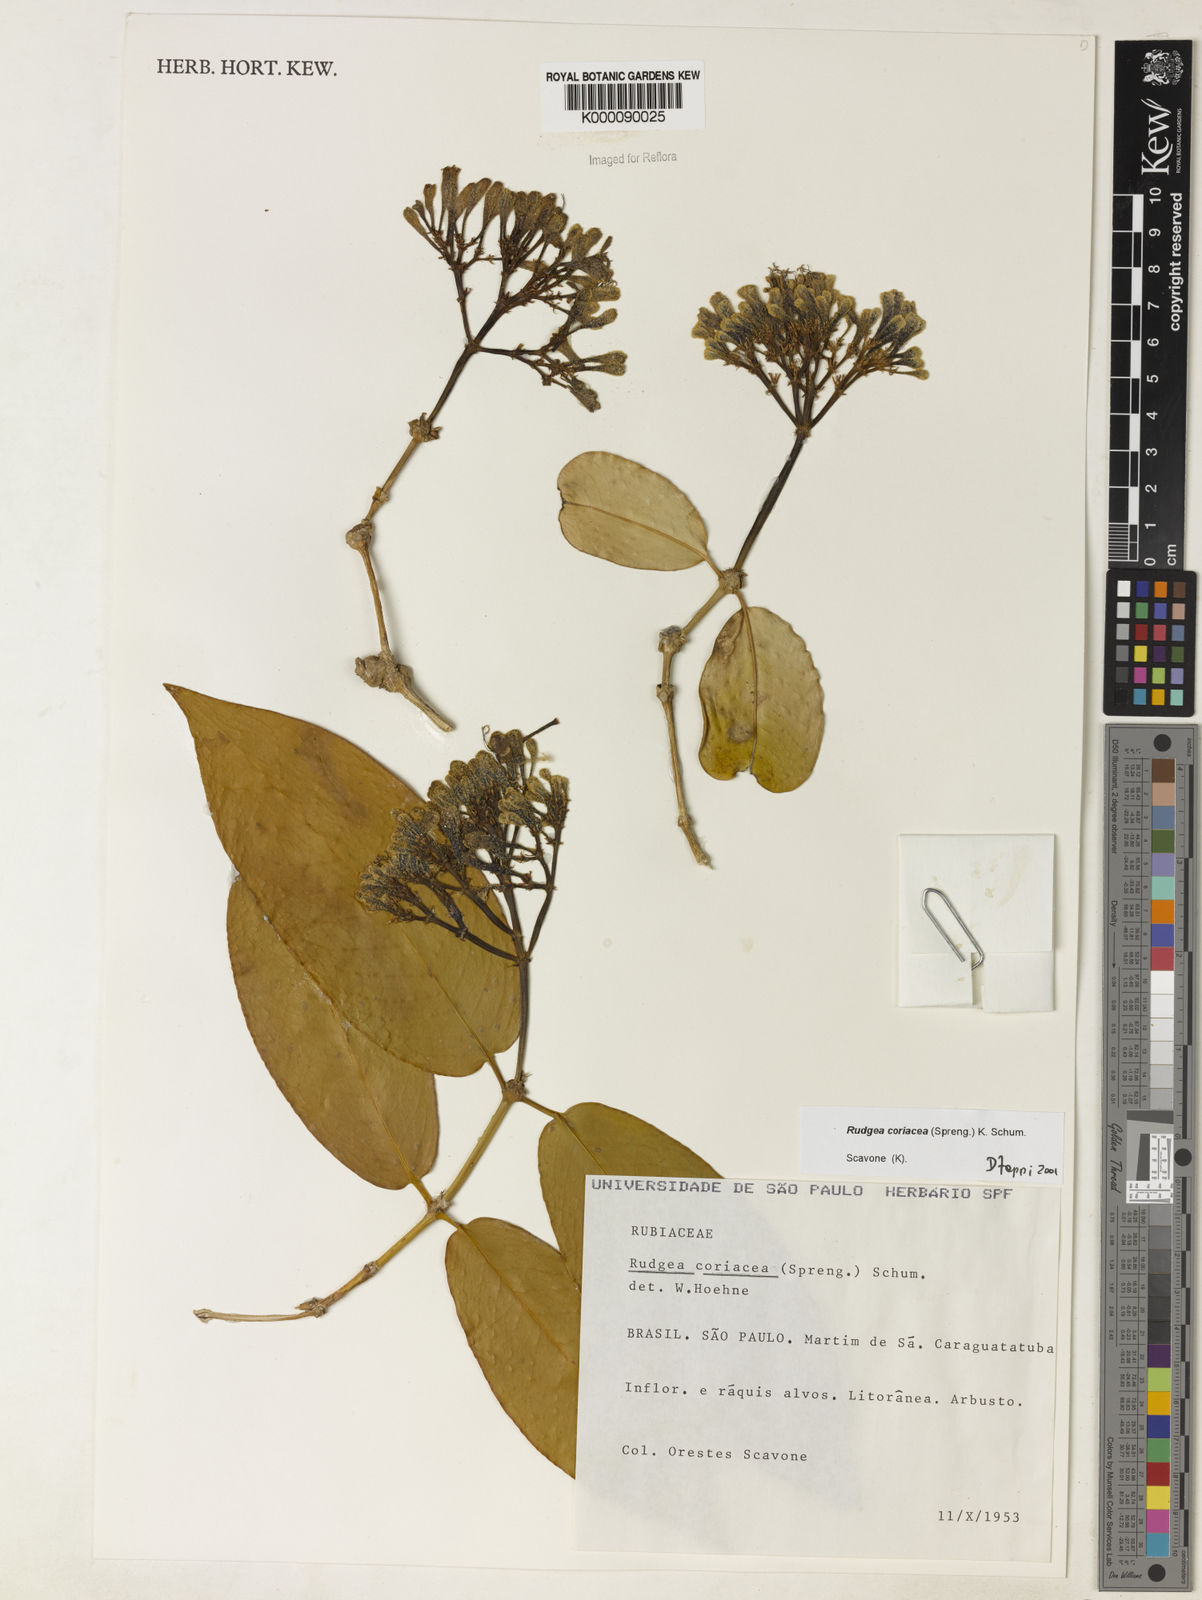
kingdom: Plantae
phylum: Tracheophyta
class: Magnoliopsida
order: Gentianales
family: Rubiaceae
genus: Rudgea
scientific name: Rudgea coriacea
